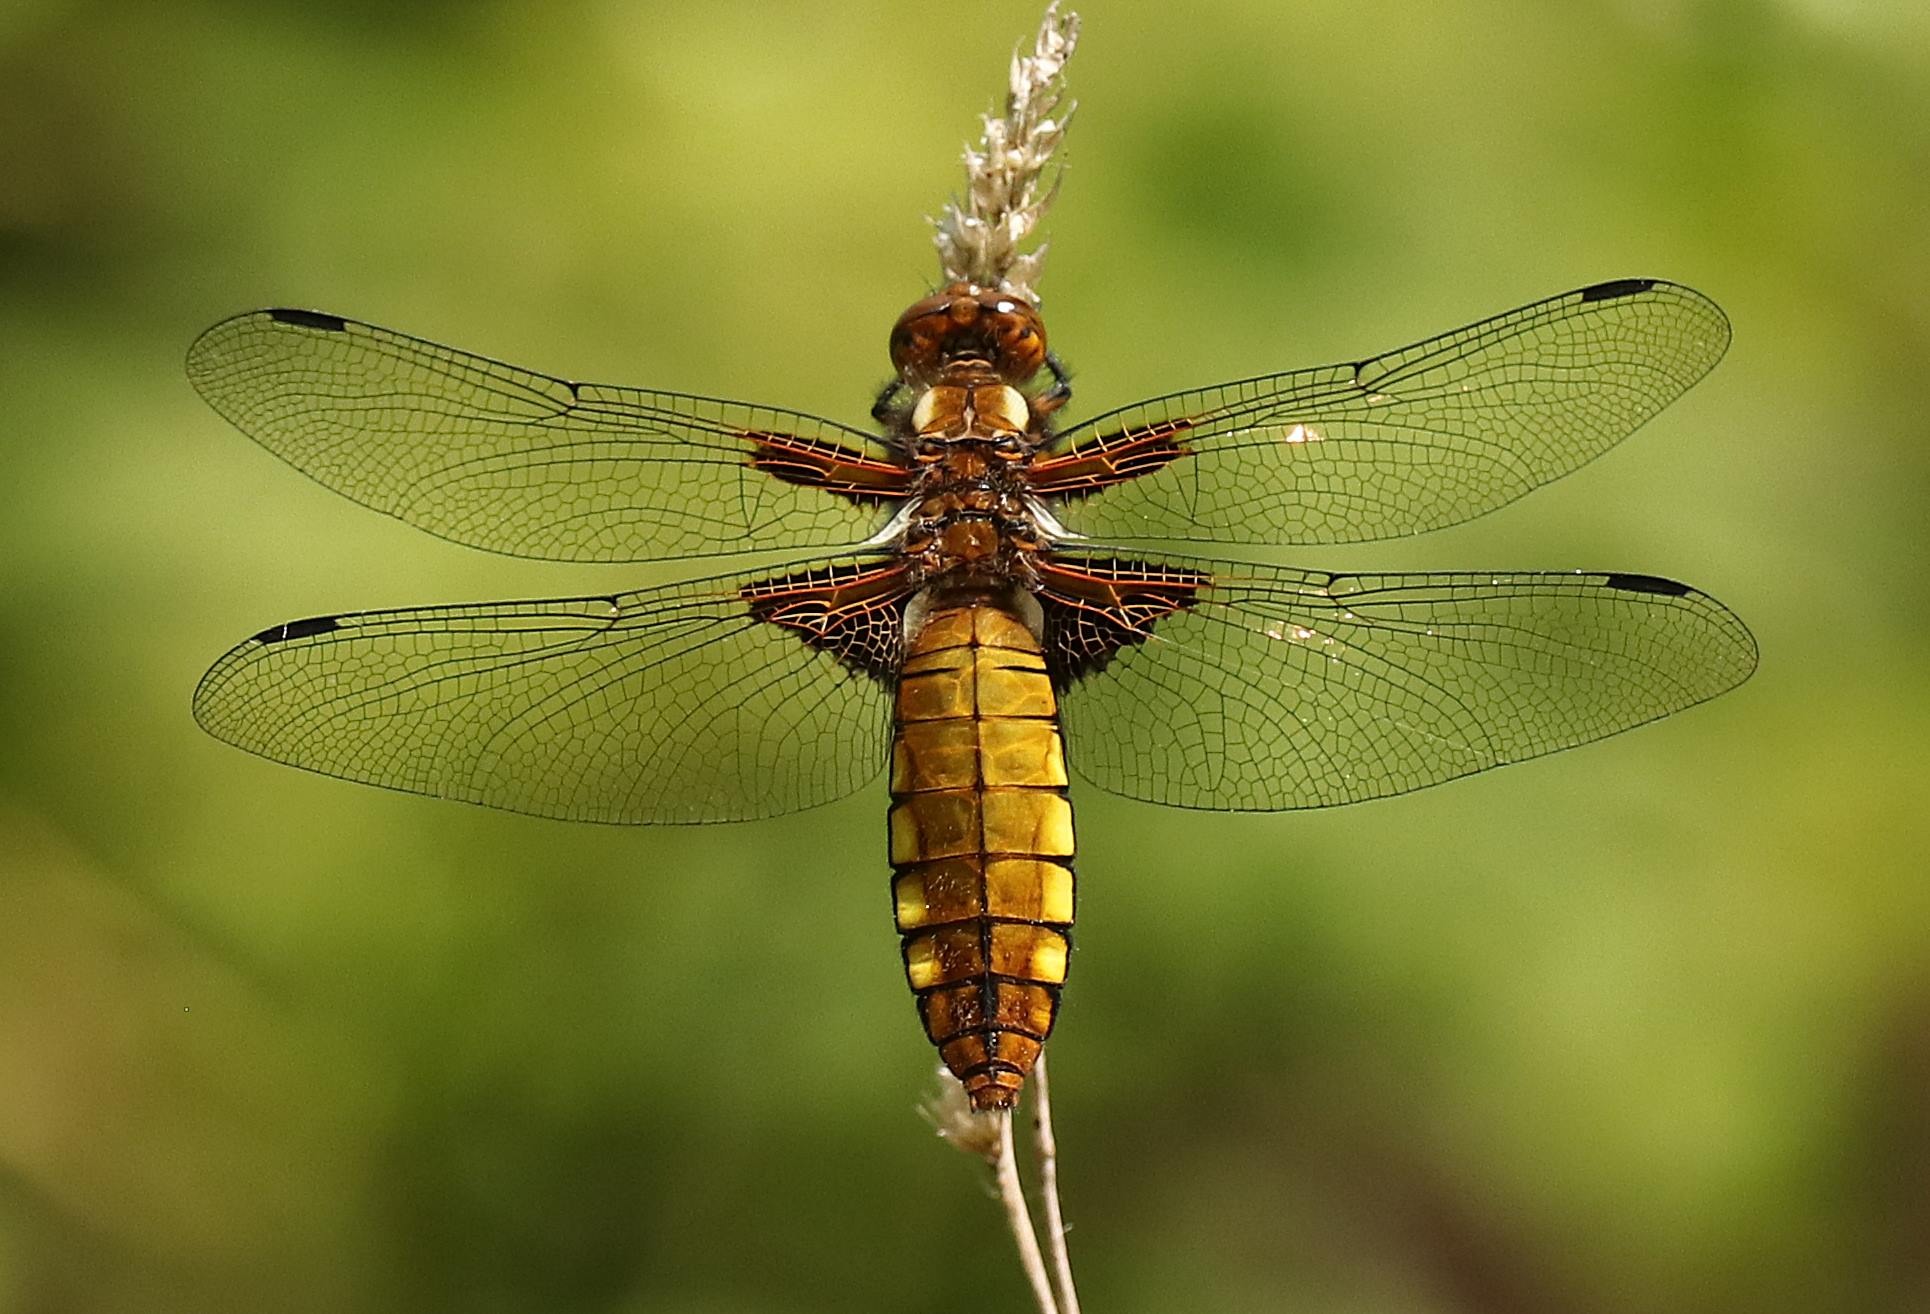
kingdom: Animalia
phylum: Arthropoda
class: Insecta
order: Odonata
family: Libellulidae
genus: Libellula
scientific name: Libellula depressa
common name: Blå libel
